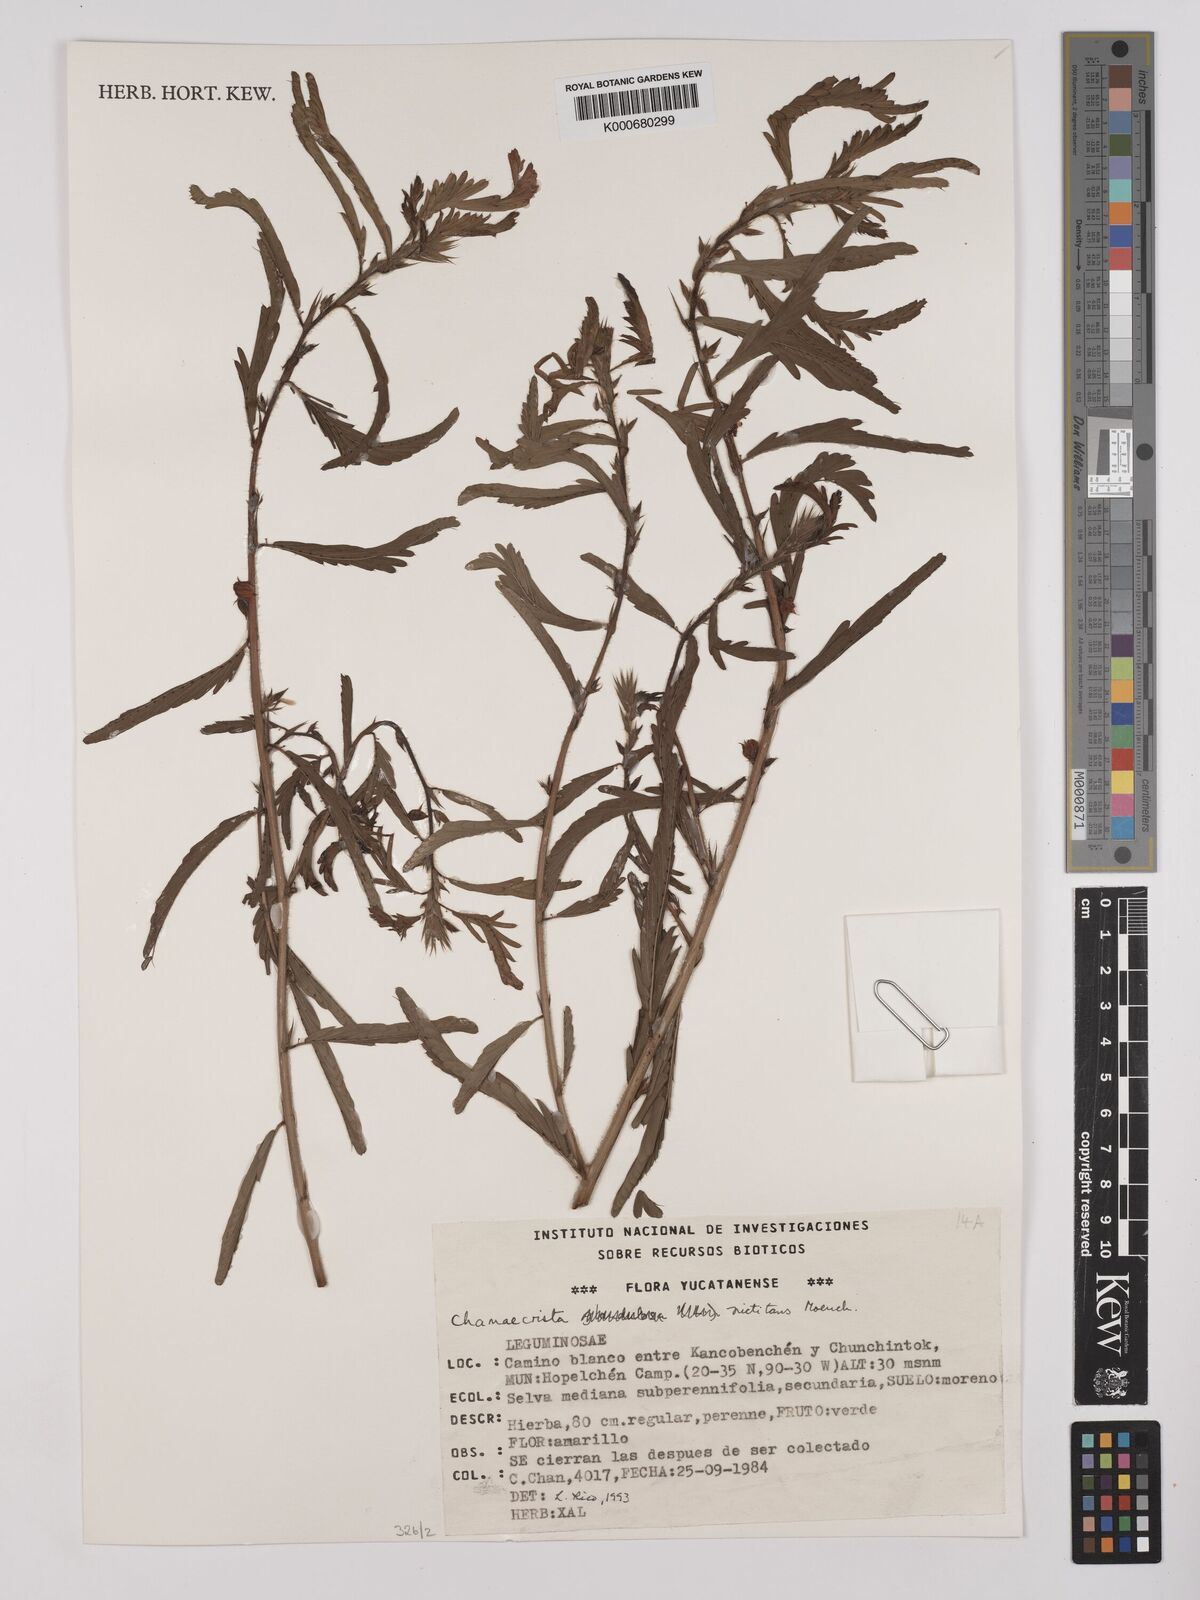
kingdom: Plantae
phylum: Tracheophyta
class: Magnoliopsida
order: Fabales
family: Fabaceae
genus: Chamaecrista
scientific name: Chamaecrista nictitans
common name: Sensitive cassia
